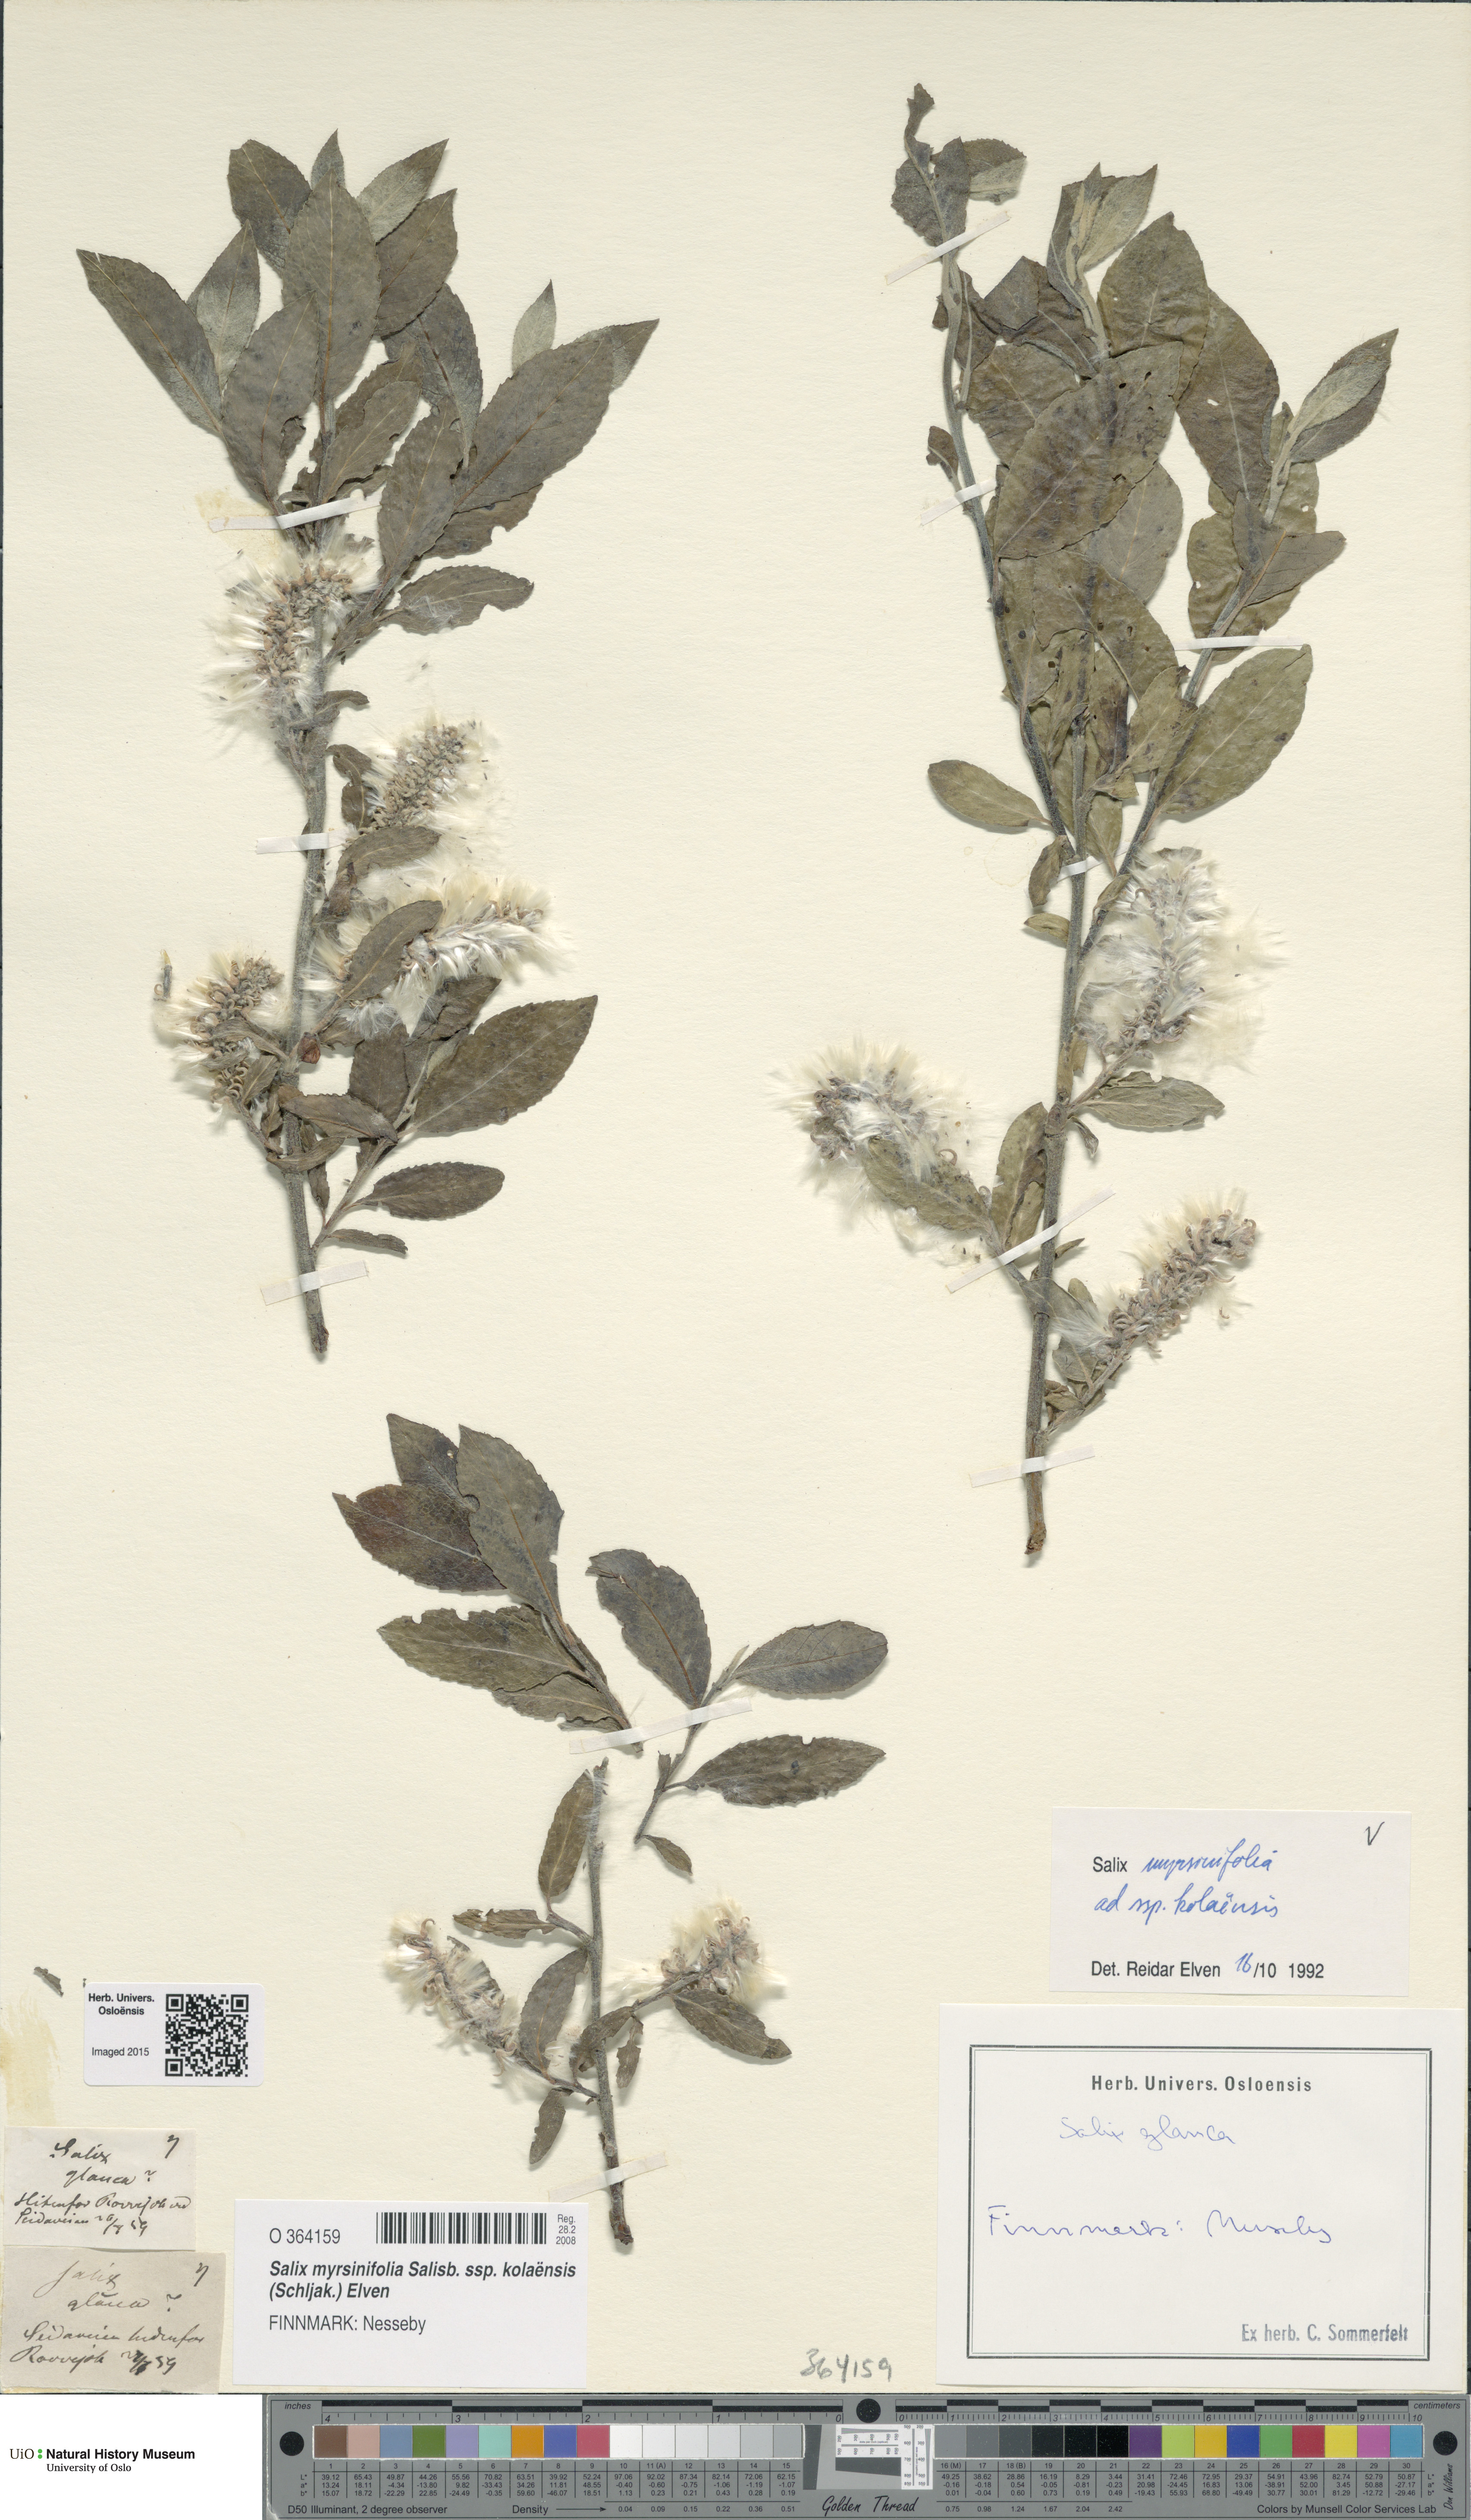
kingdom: Plantae
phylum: Tracheophyta
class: Magnoliopsida
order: Malpighiales
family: Salicaceae
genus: Salix
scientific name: Salix myrsinifolia
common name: Dark-leaved willow
